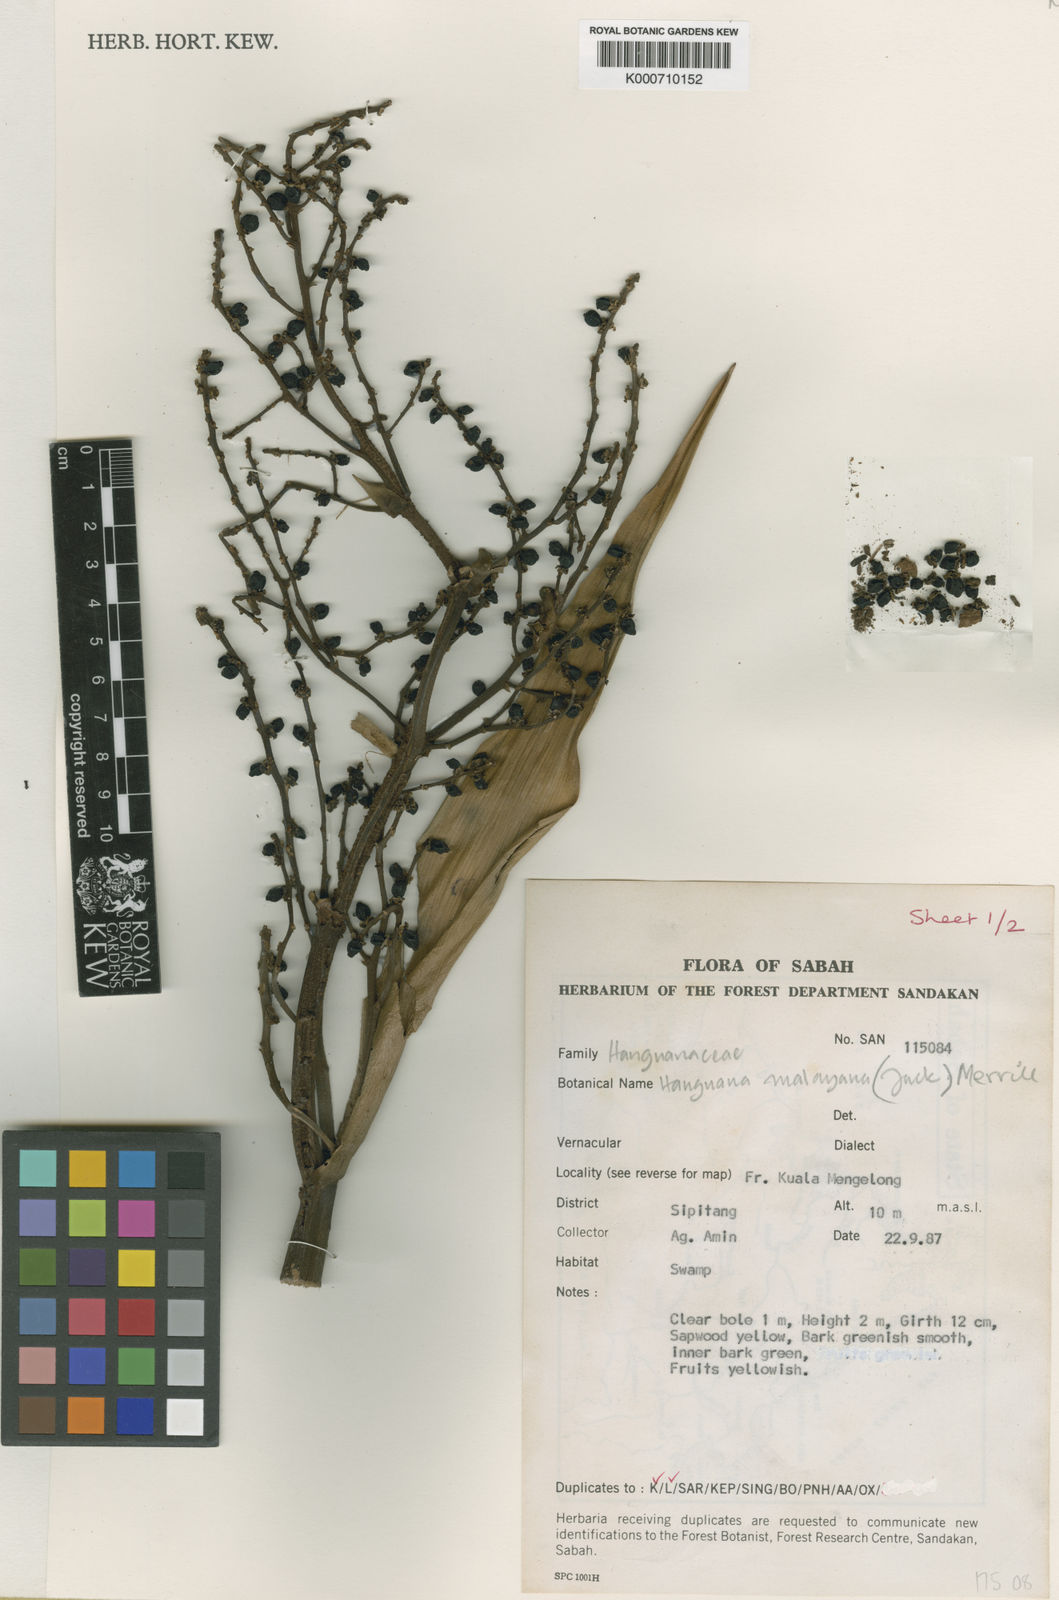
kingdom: Plantae
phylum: Tracheophyta
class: Liliopsida
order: Commelinales
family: Hanguanaceae
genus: Hanguana
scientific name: Hanguana malayana
